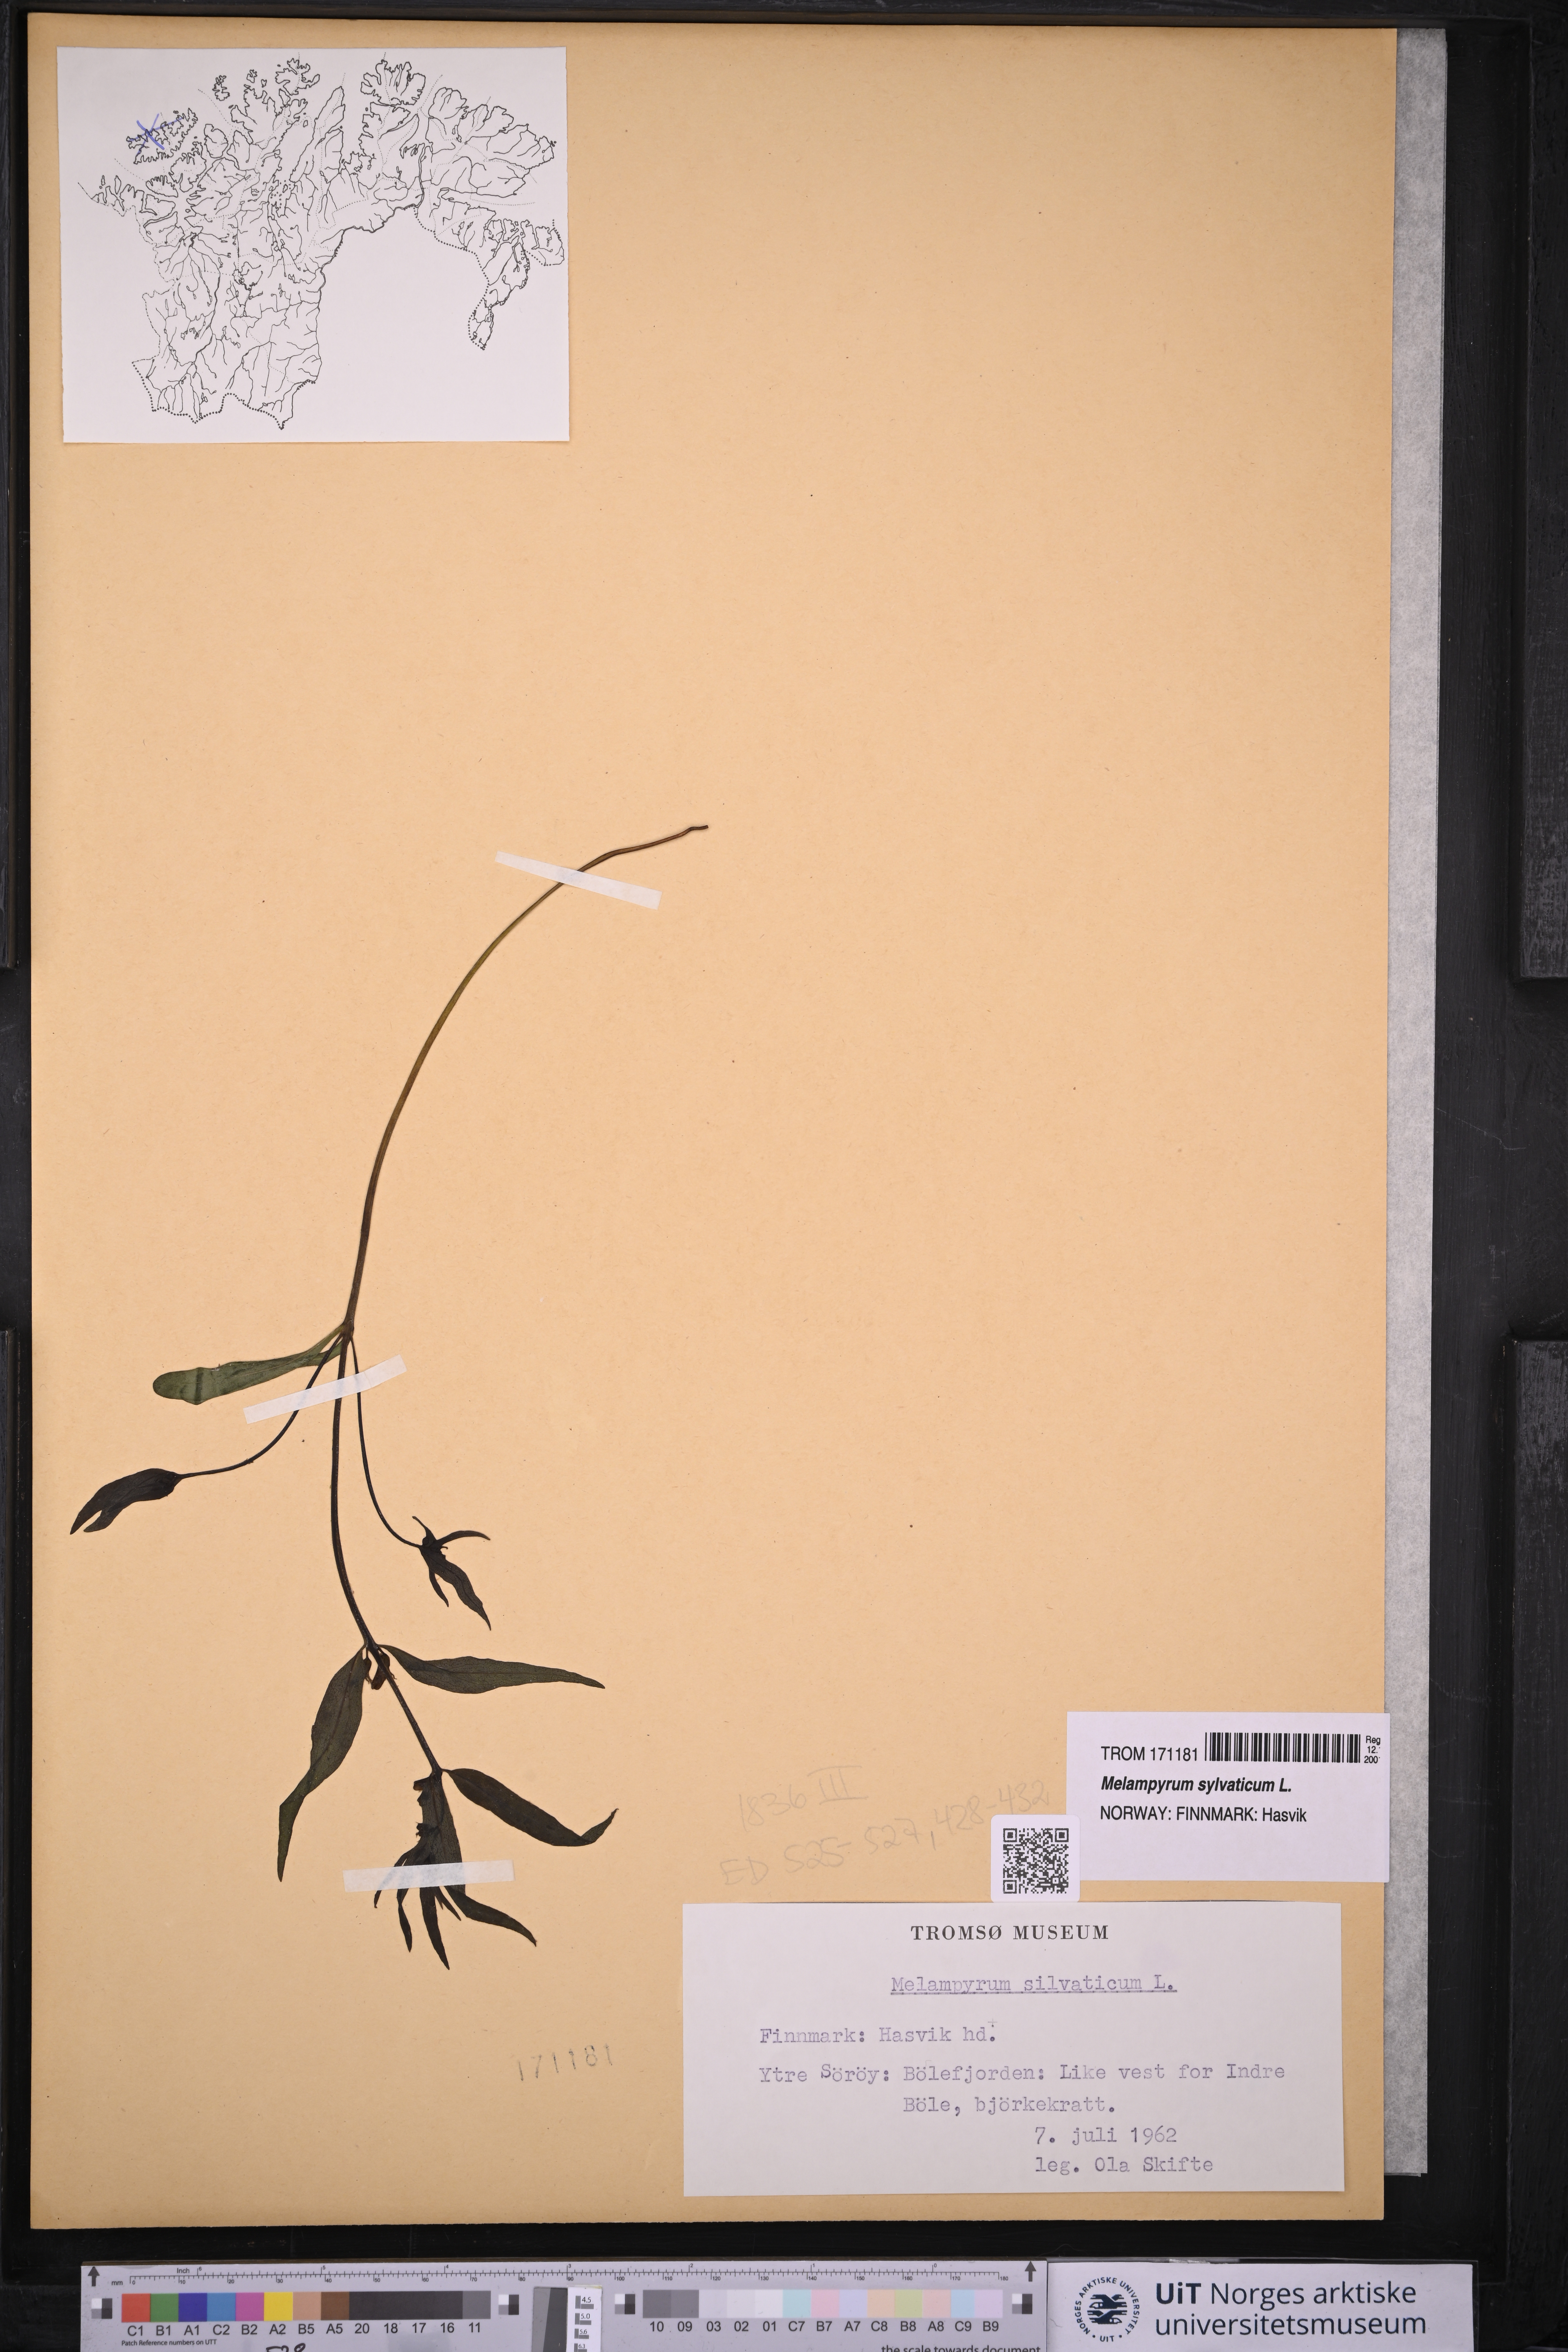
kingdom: Plantae
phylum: Tracheophyta
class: Magnoliopsida
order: Lamiales
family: Orobanchaceae
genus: Melampyrum
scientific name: Melampyrum sylvaticum
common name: Small cow-wheat
